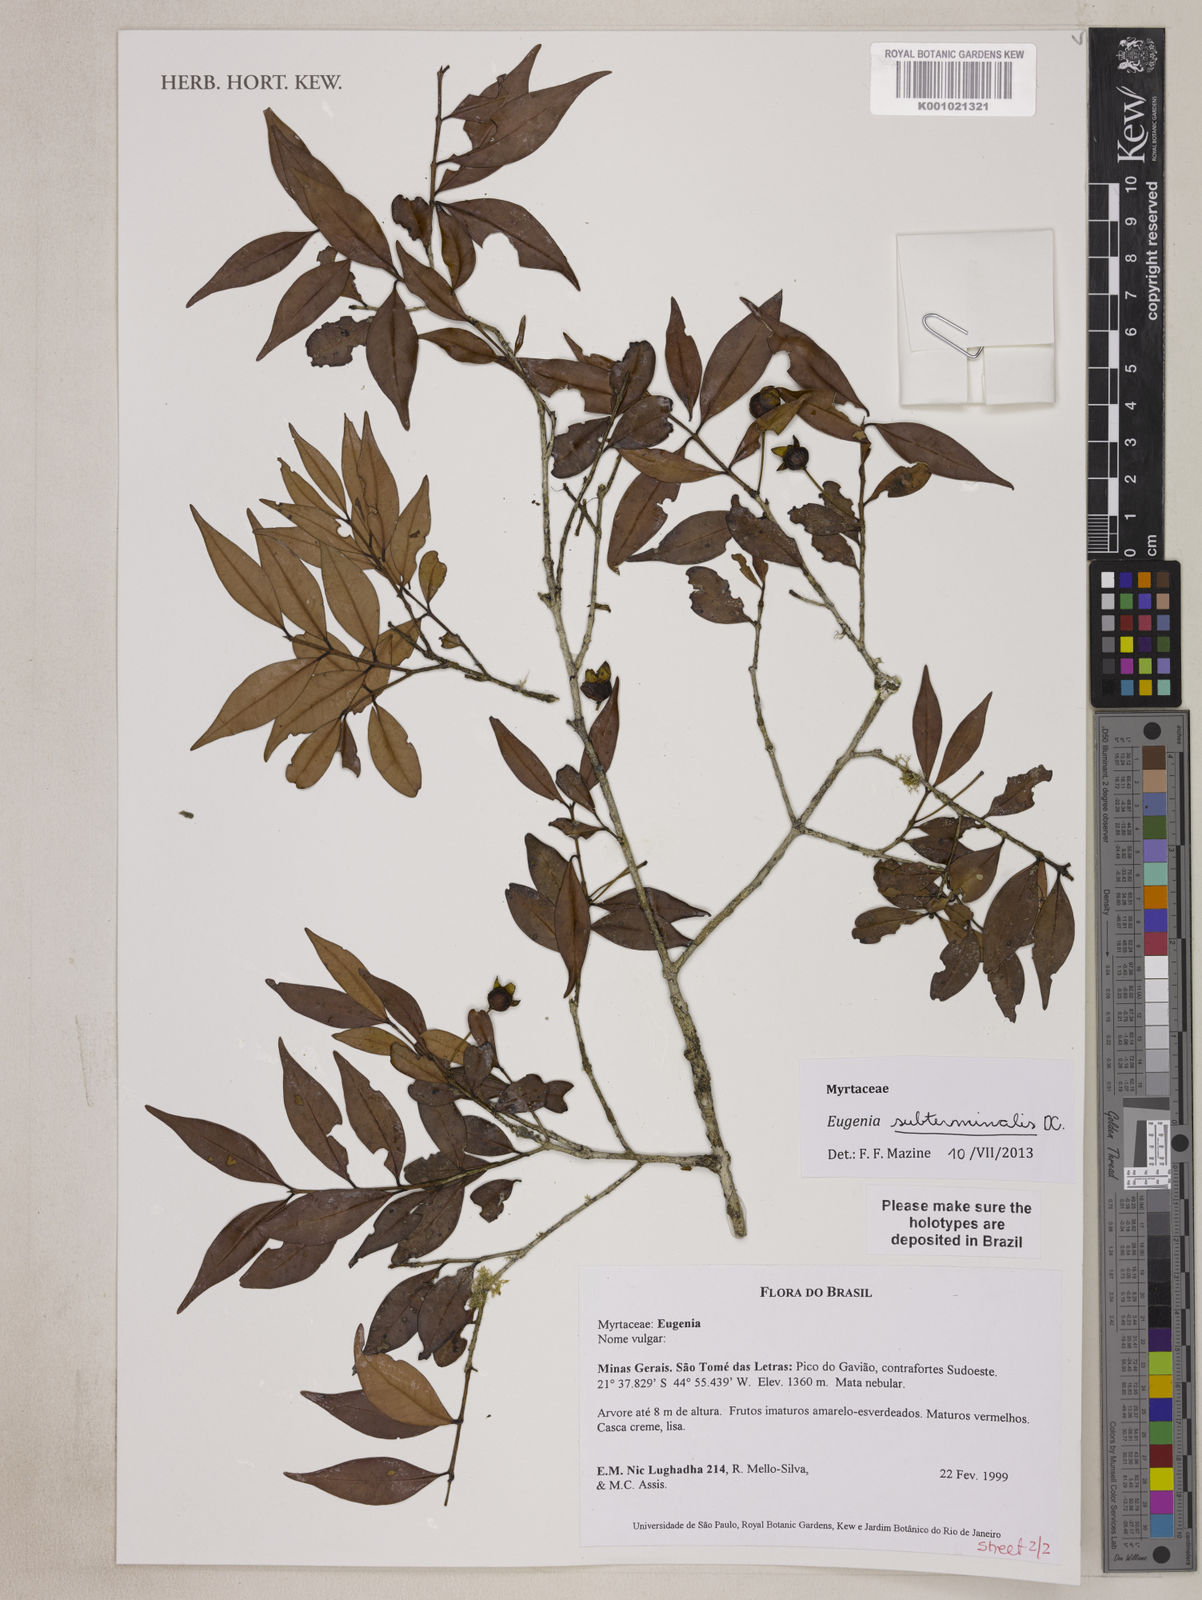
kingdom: Plantae
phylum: Tracheophyta
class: Magnoliopsida
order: Myrtales
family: Myrtaceae
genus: Eugenia
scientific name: Eugenia subterminalis
